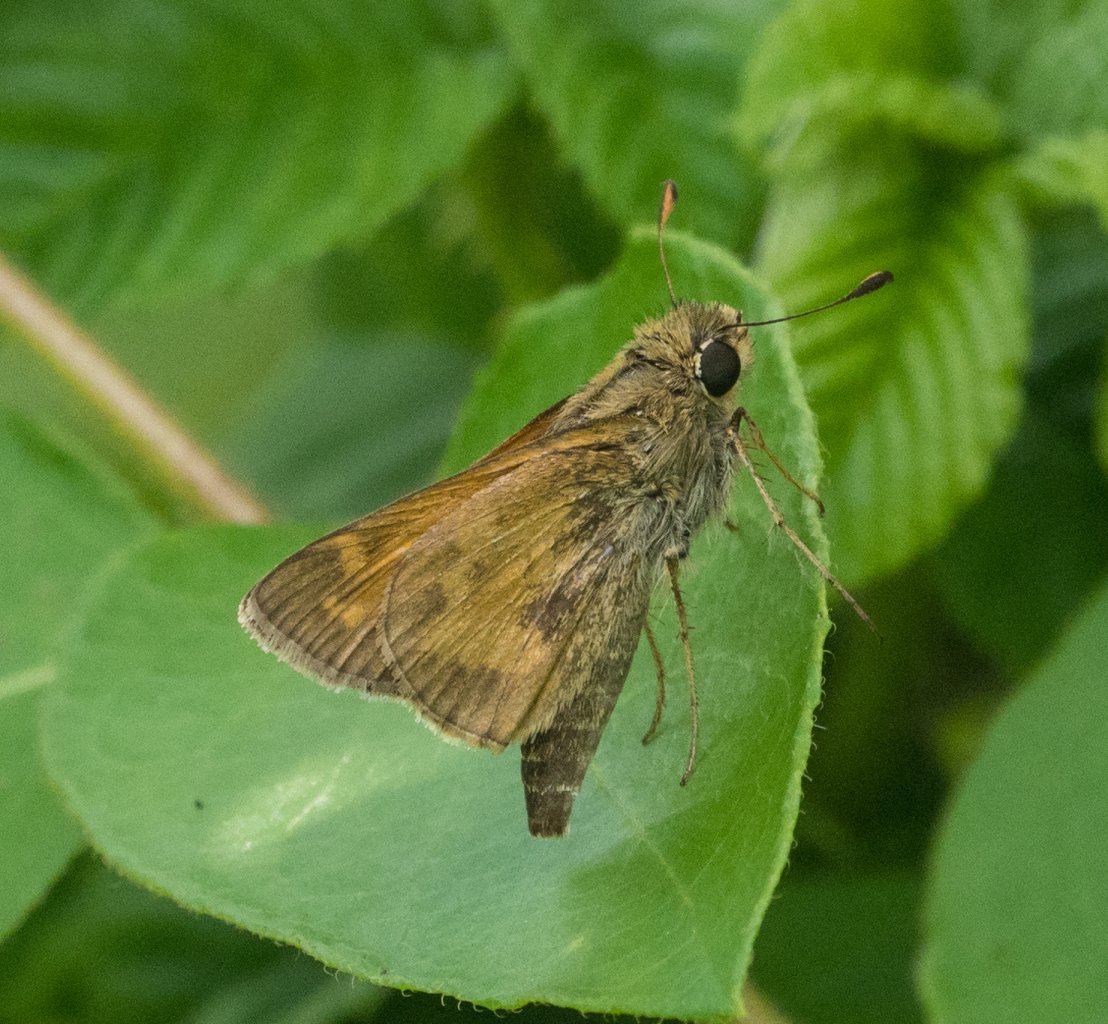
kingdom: Animalia
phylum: Arthropoda
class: Insecta
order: Lepidoptera
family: Hesperiidae
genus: Atalopedes
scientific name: Atalopedes campestris
